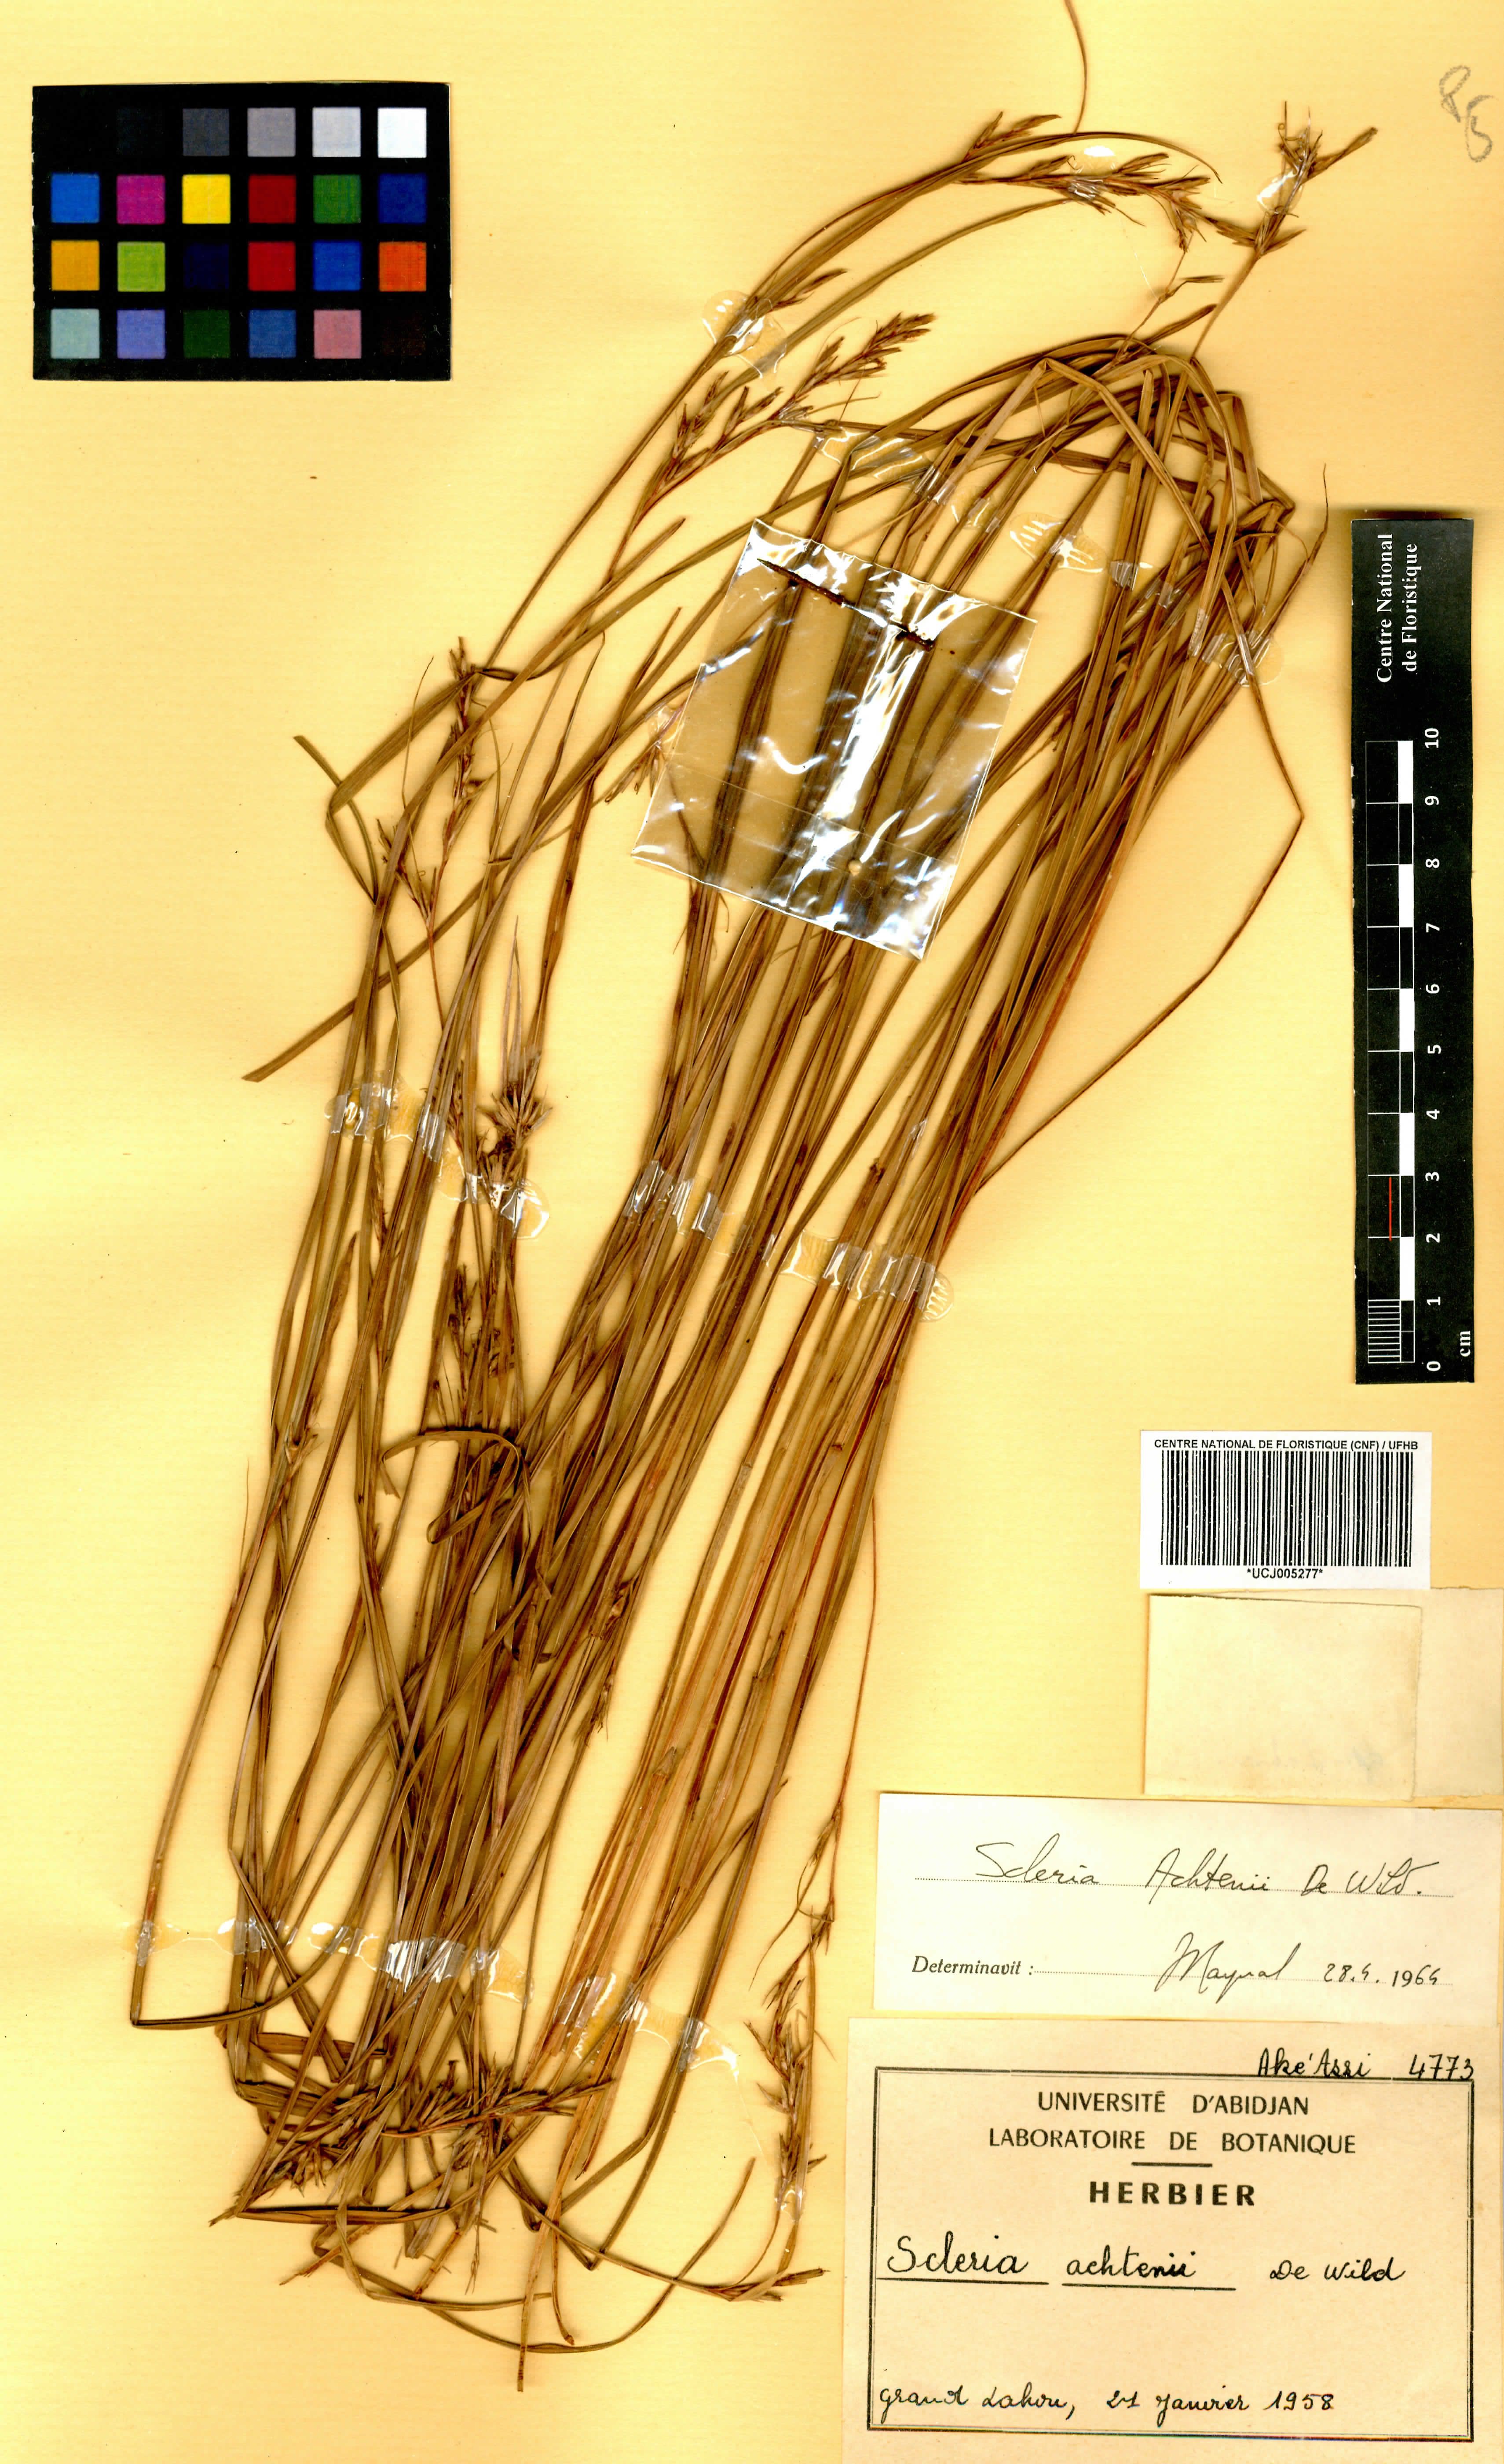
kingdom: Plantae
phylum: Tracheophyta
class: Liliopsida
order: Poales
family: Cyperaceae
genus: Scleria
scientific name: Scleria achtenii
